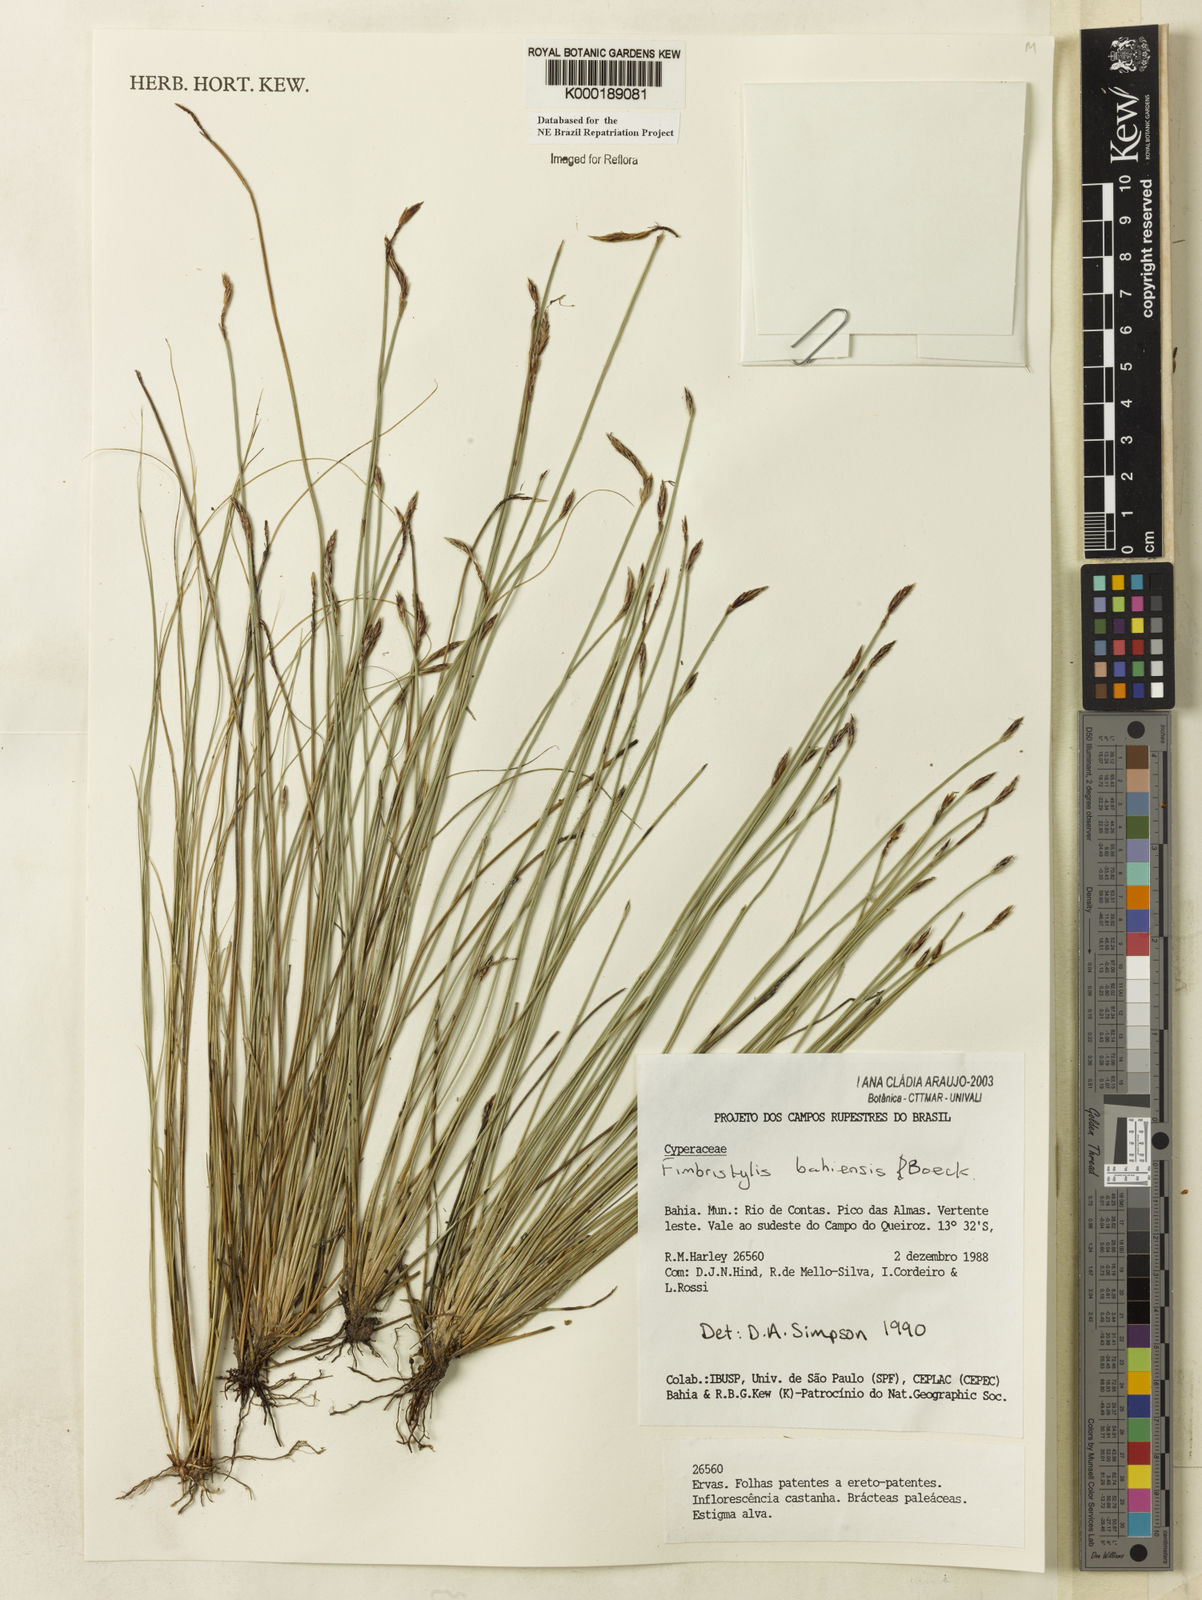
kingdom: Plantae
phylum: Tracheophyta
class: Liliopsida
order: Poales
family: Cyperaceae
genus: Fimbristylis
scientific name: Fimbristylis bahiensis
